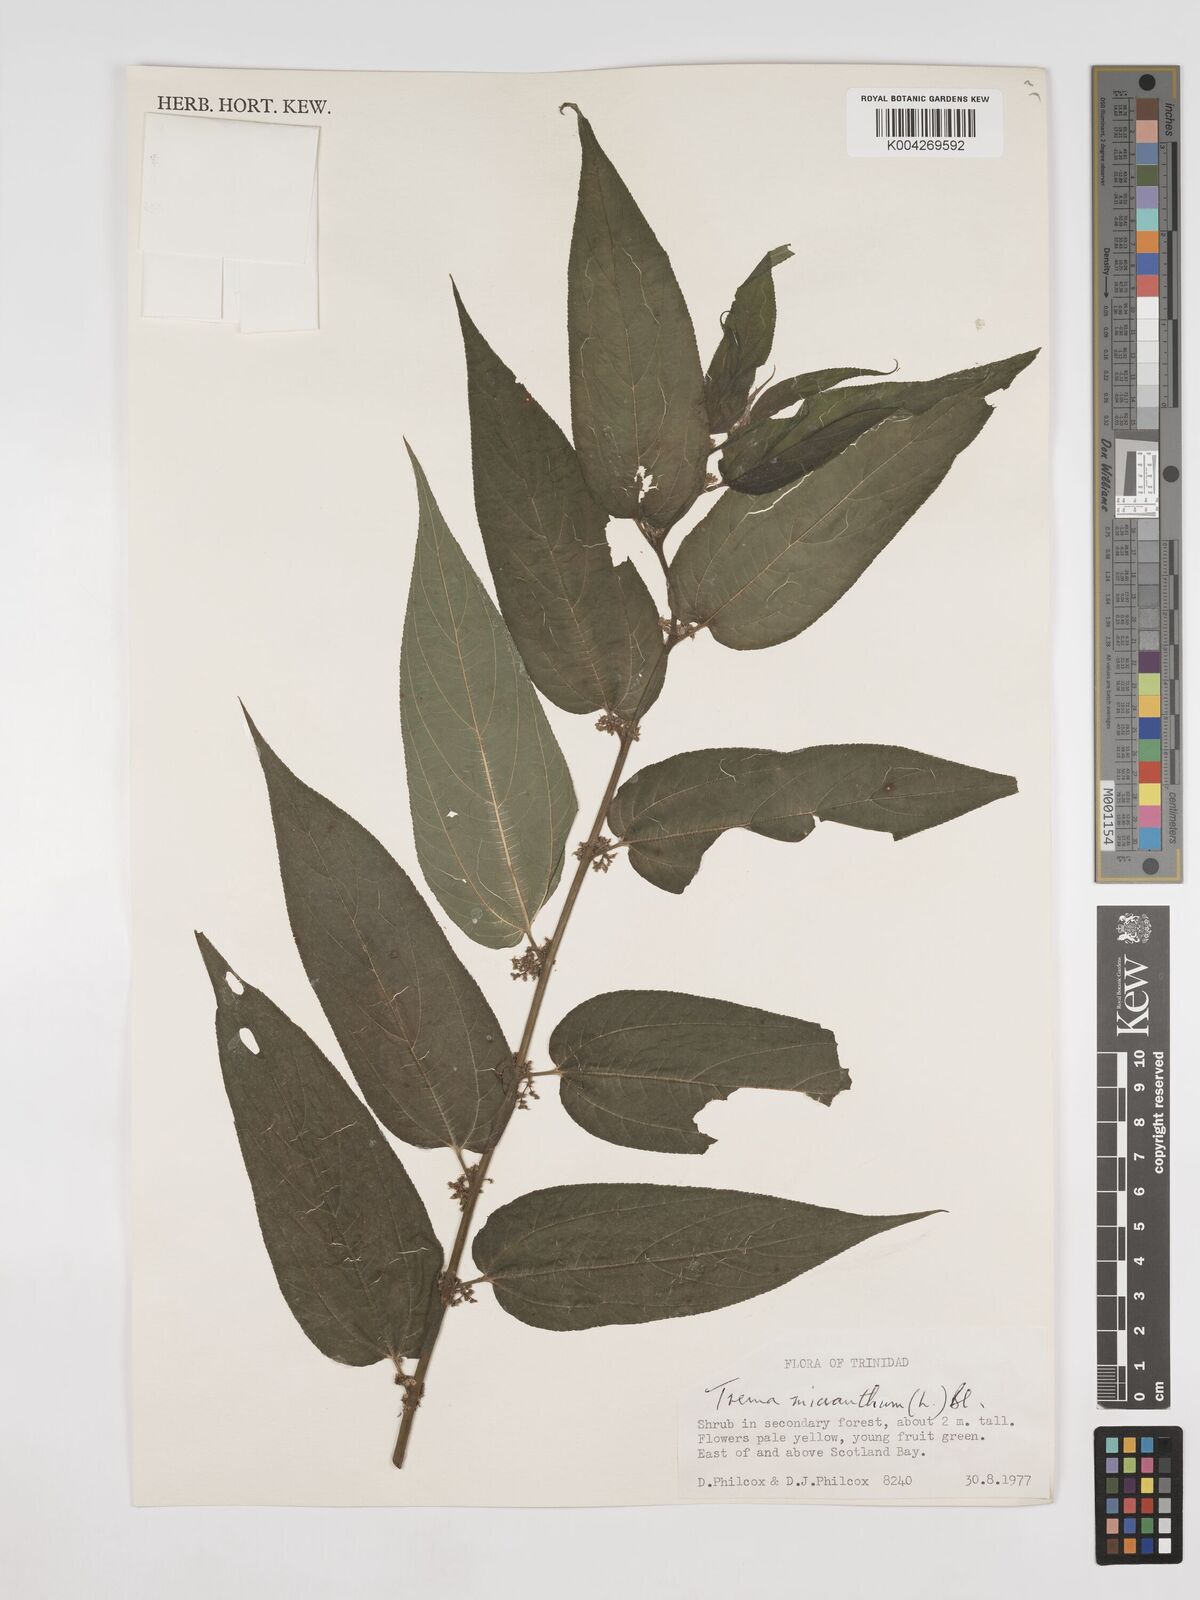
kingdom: Plantae
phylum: Tracheophyta
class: Magnoliopsida
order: Rosales
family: Cannabaceae
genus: Trema
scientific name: Trema micranthum
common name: Jamaican nettletree
